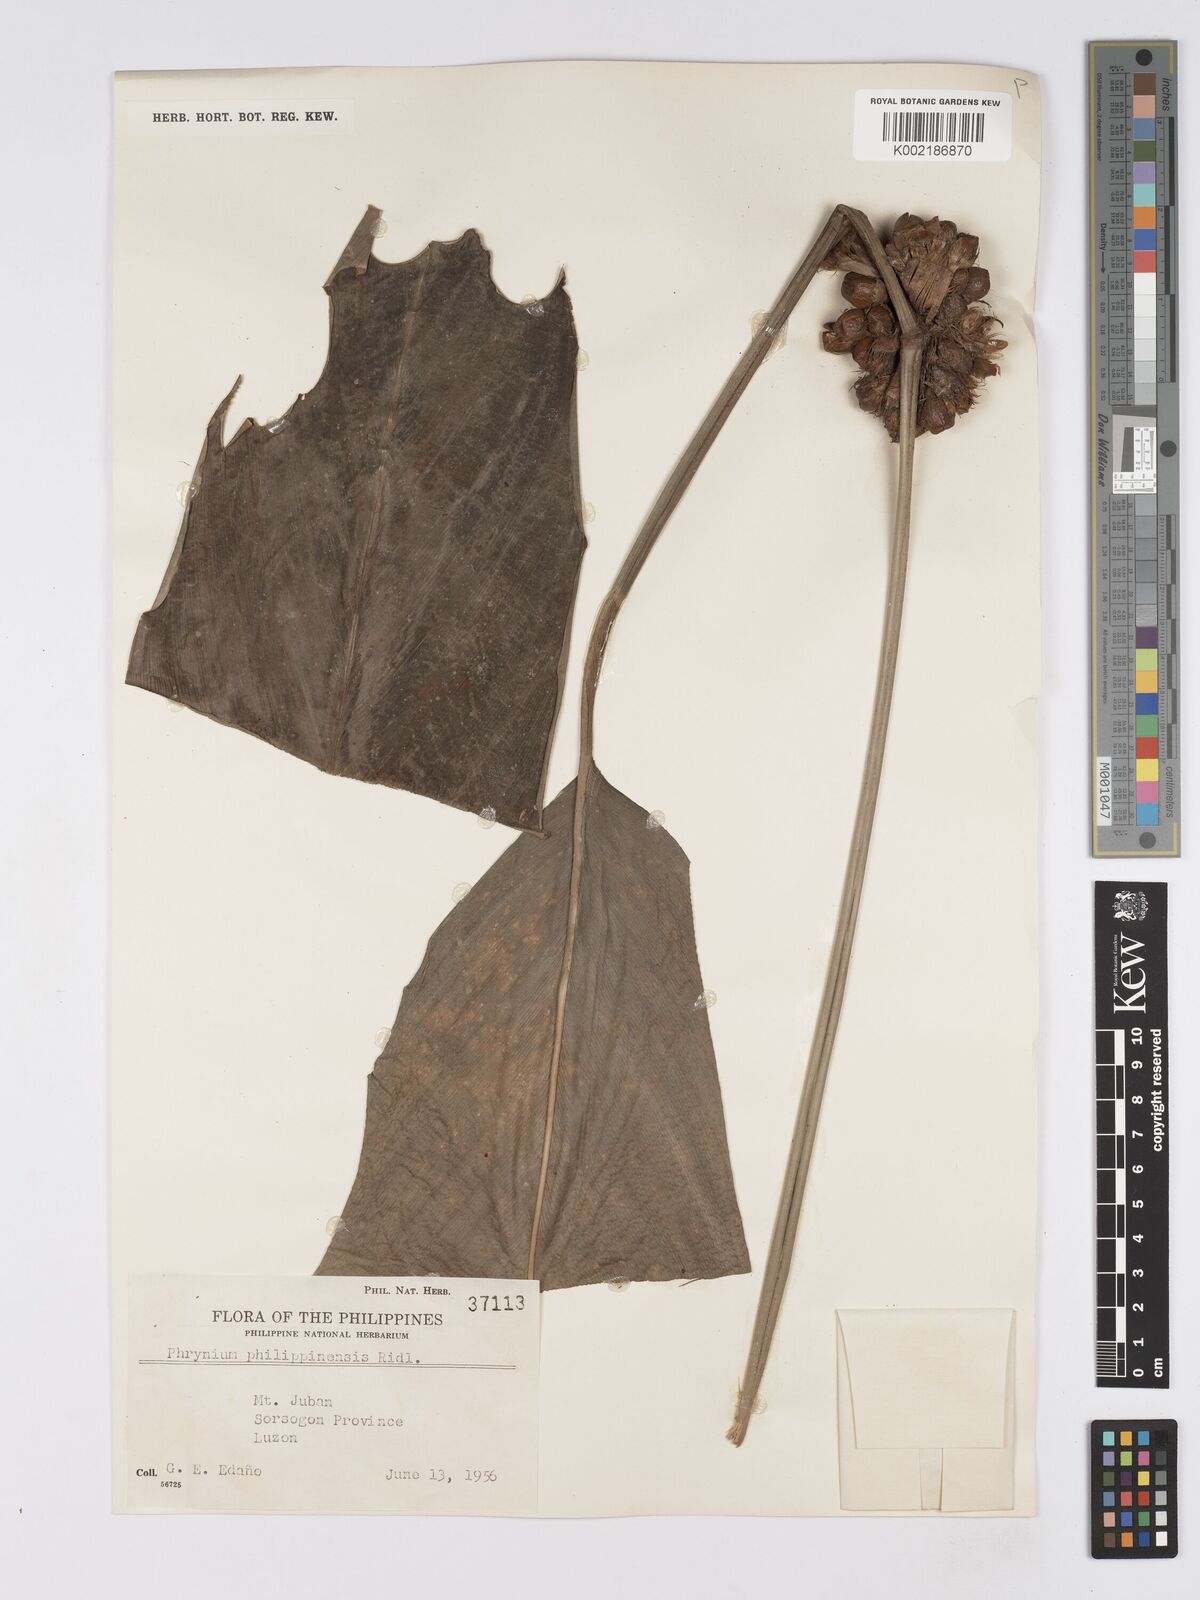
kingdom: Plantae
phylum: Tracheophyta
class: Liliopsida
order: Zingiberales
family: Marantaceae
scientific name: Marantaceae
